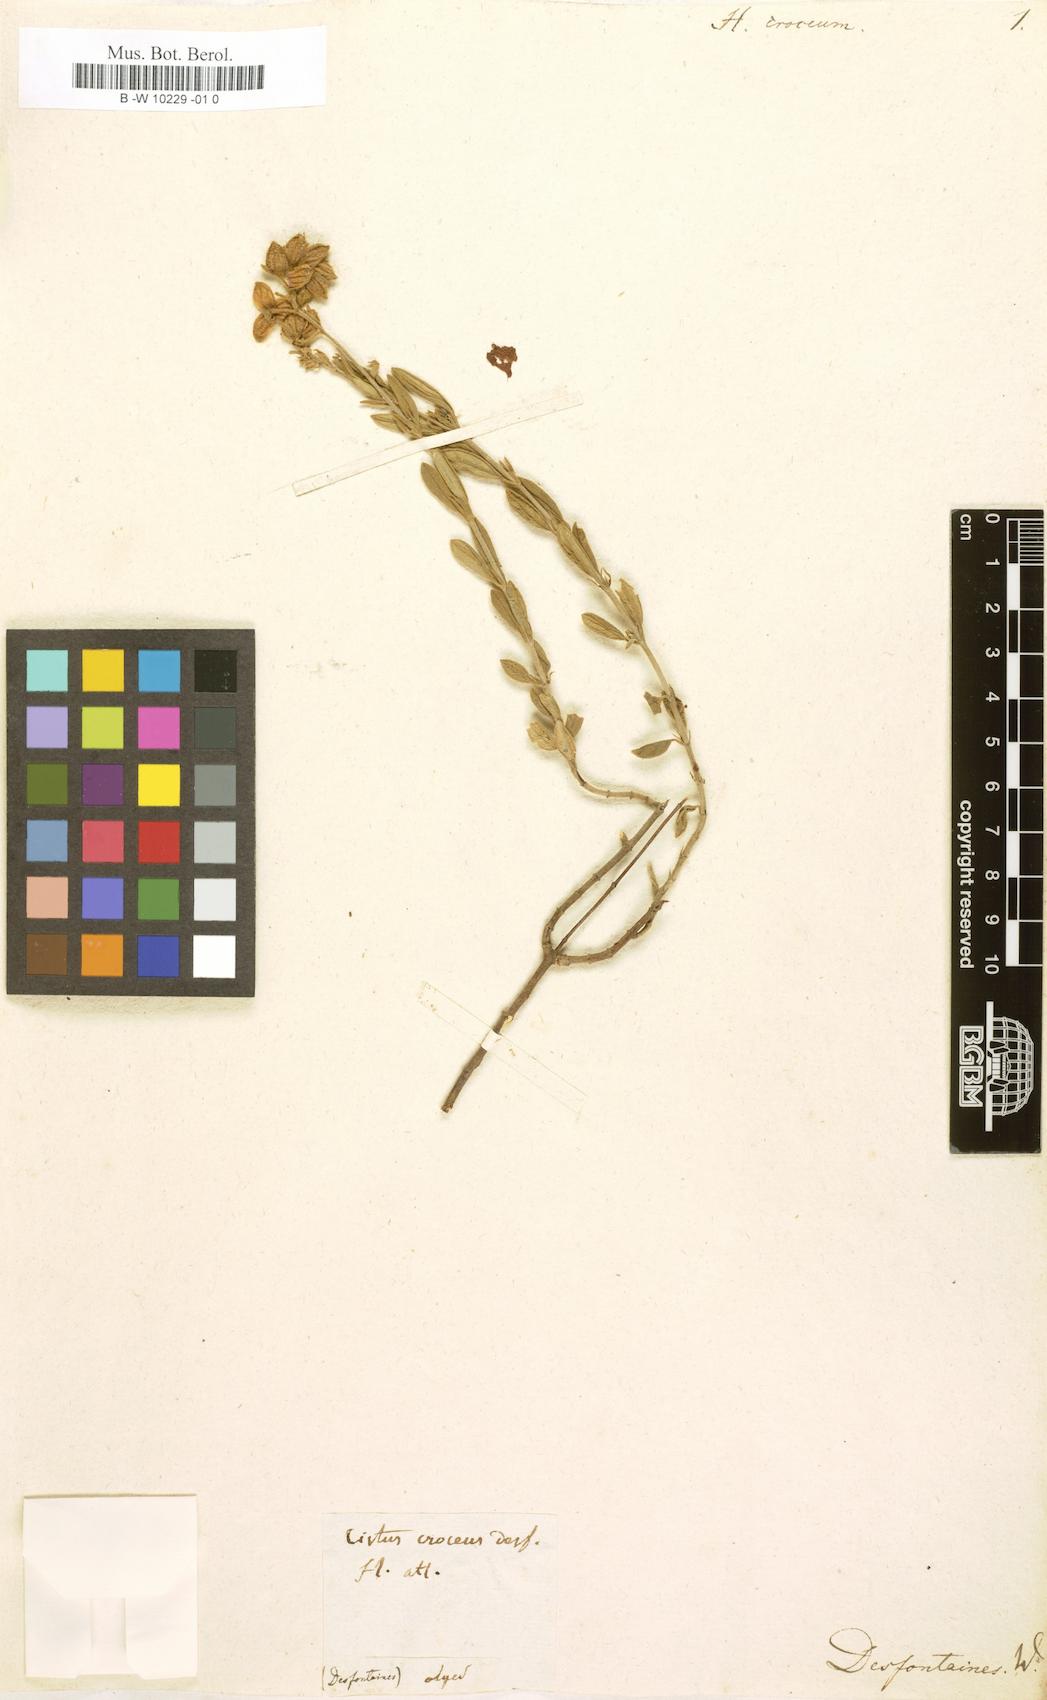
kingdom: Plantae
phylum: Tracheophyta
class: Magnoliopsida
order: Malvales
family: Cistaceae
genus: Helianthemum
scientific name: Helianthemum
